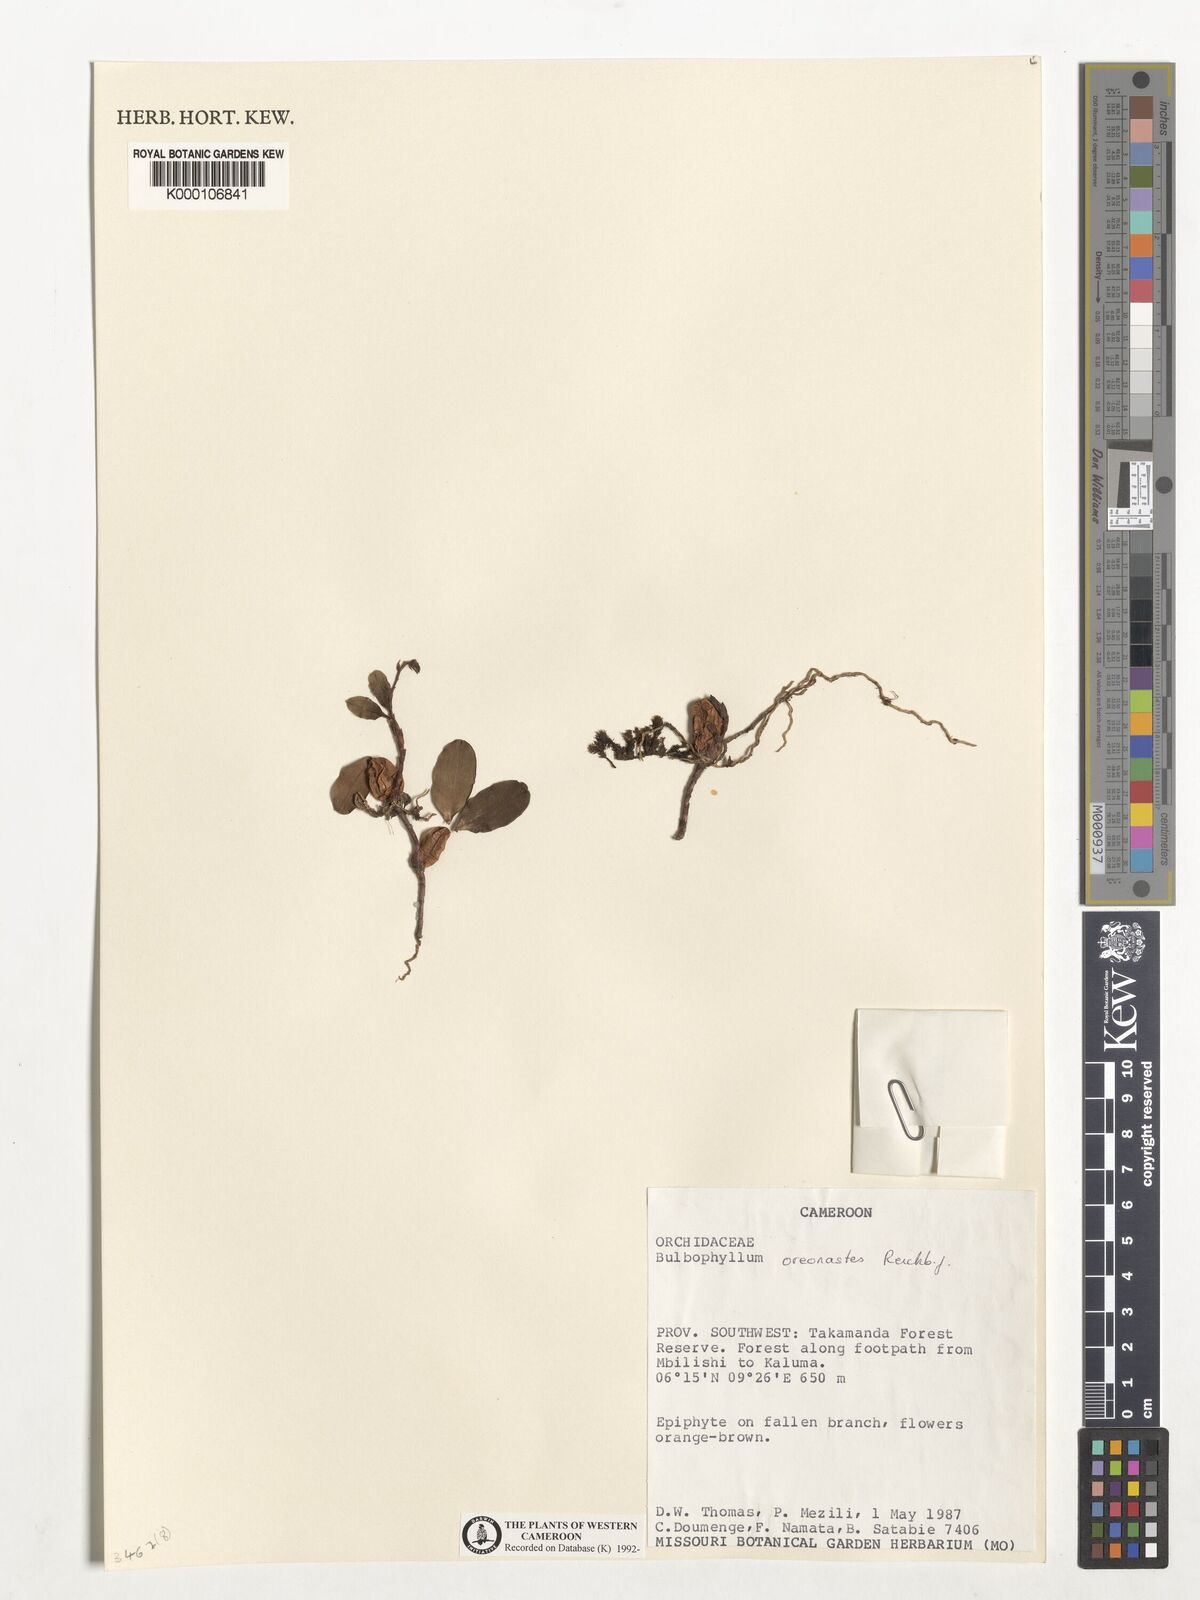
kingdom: Plantae
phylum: Tracheophyta
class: Liliopsida
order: Asparagales
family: Orchidaceae
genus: Bulbophyllum
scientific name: Bulbophyllum oreonastes
